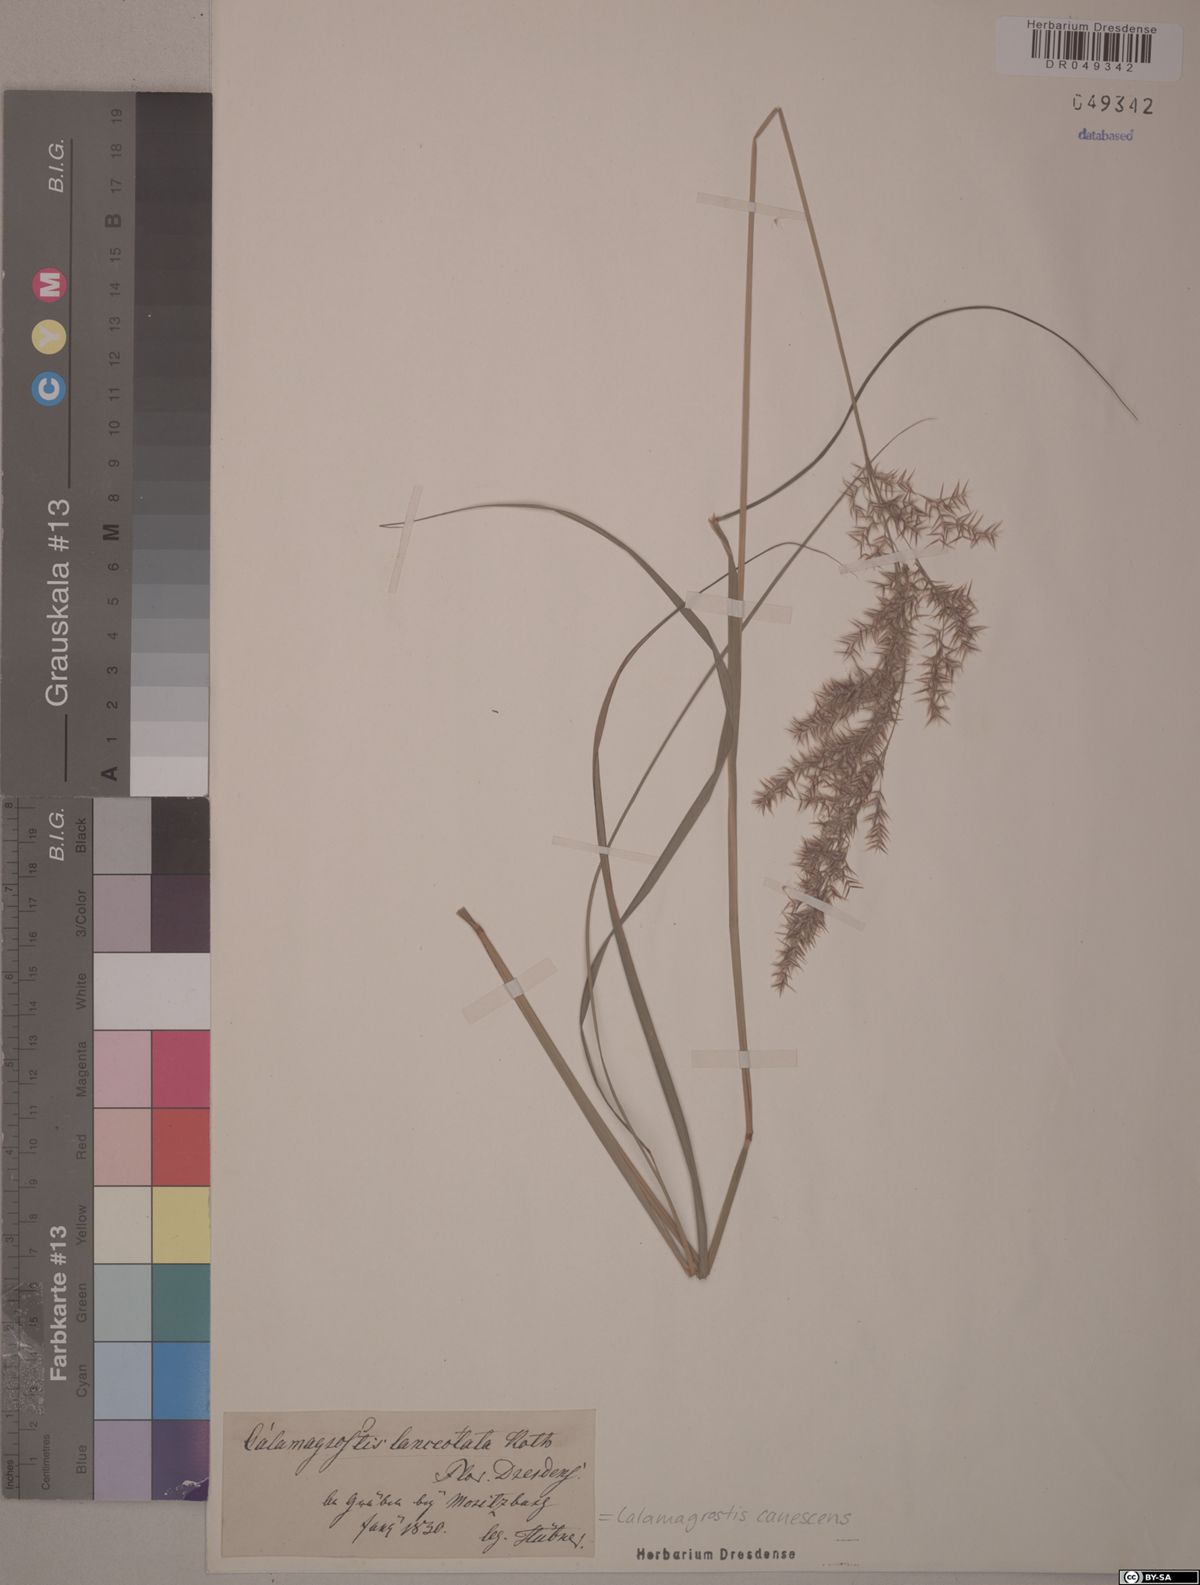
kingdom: Plantae
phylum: Tracheophyta
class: Liliopsida
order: Poales
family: Poaceae
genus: Calamagrostis
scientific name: Calamagrostis canescens
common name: Purple small-reed
